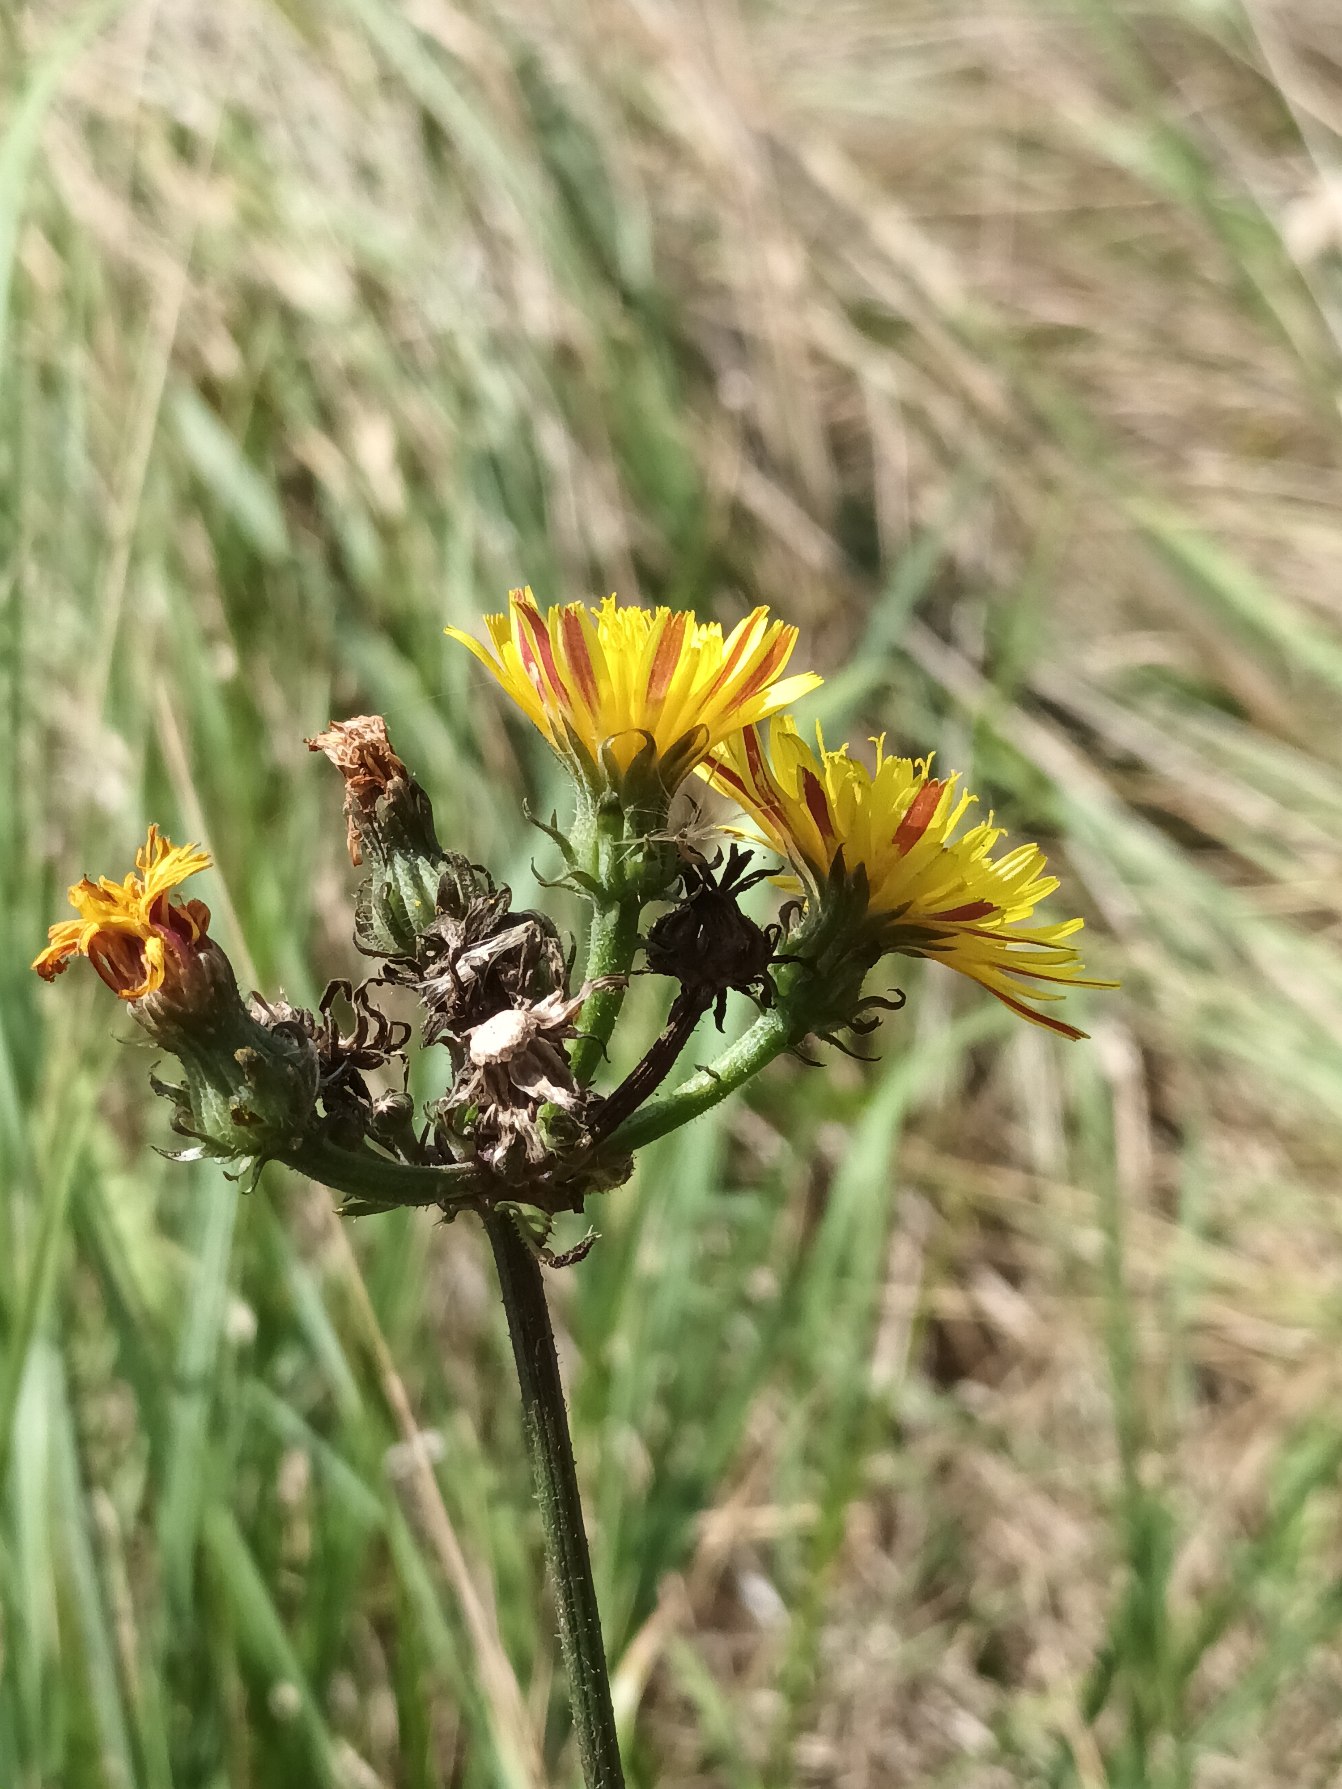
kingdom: Plantae
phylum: Tracheophyta
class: Magnoliopsida
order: Asterales
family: Asteraceae
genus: Picris
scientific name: Picris hieracioides
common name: Ru bittermælk
